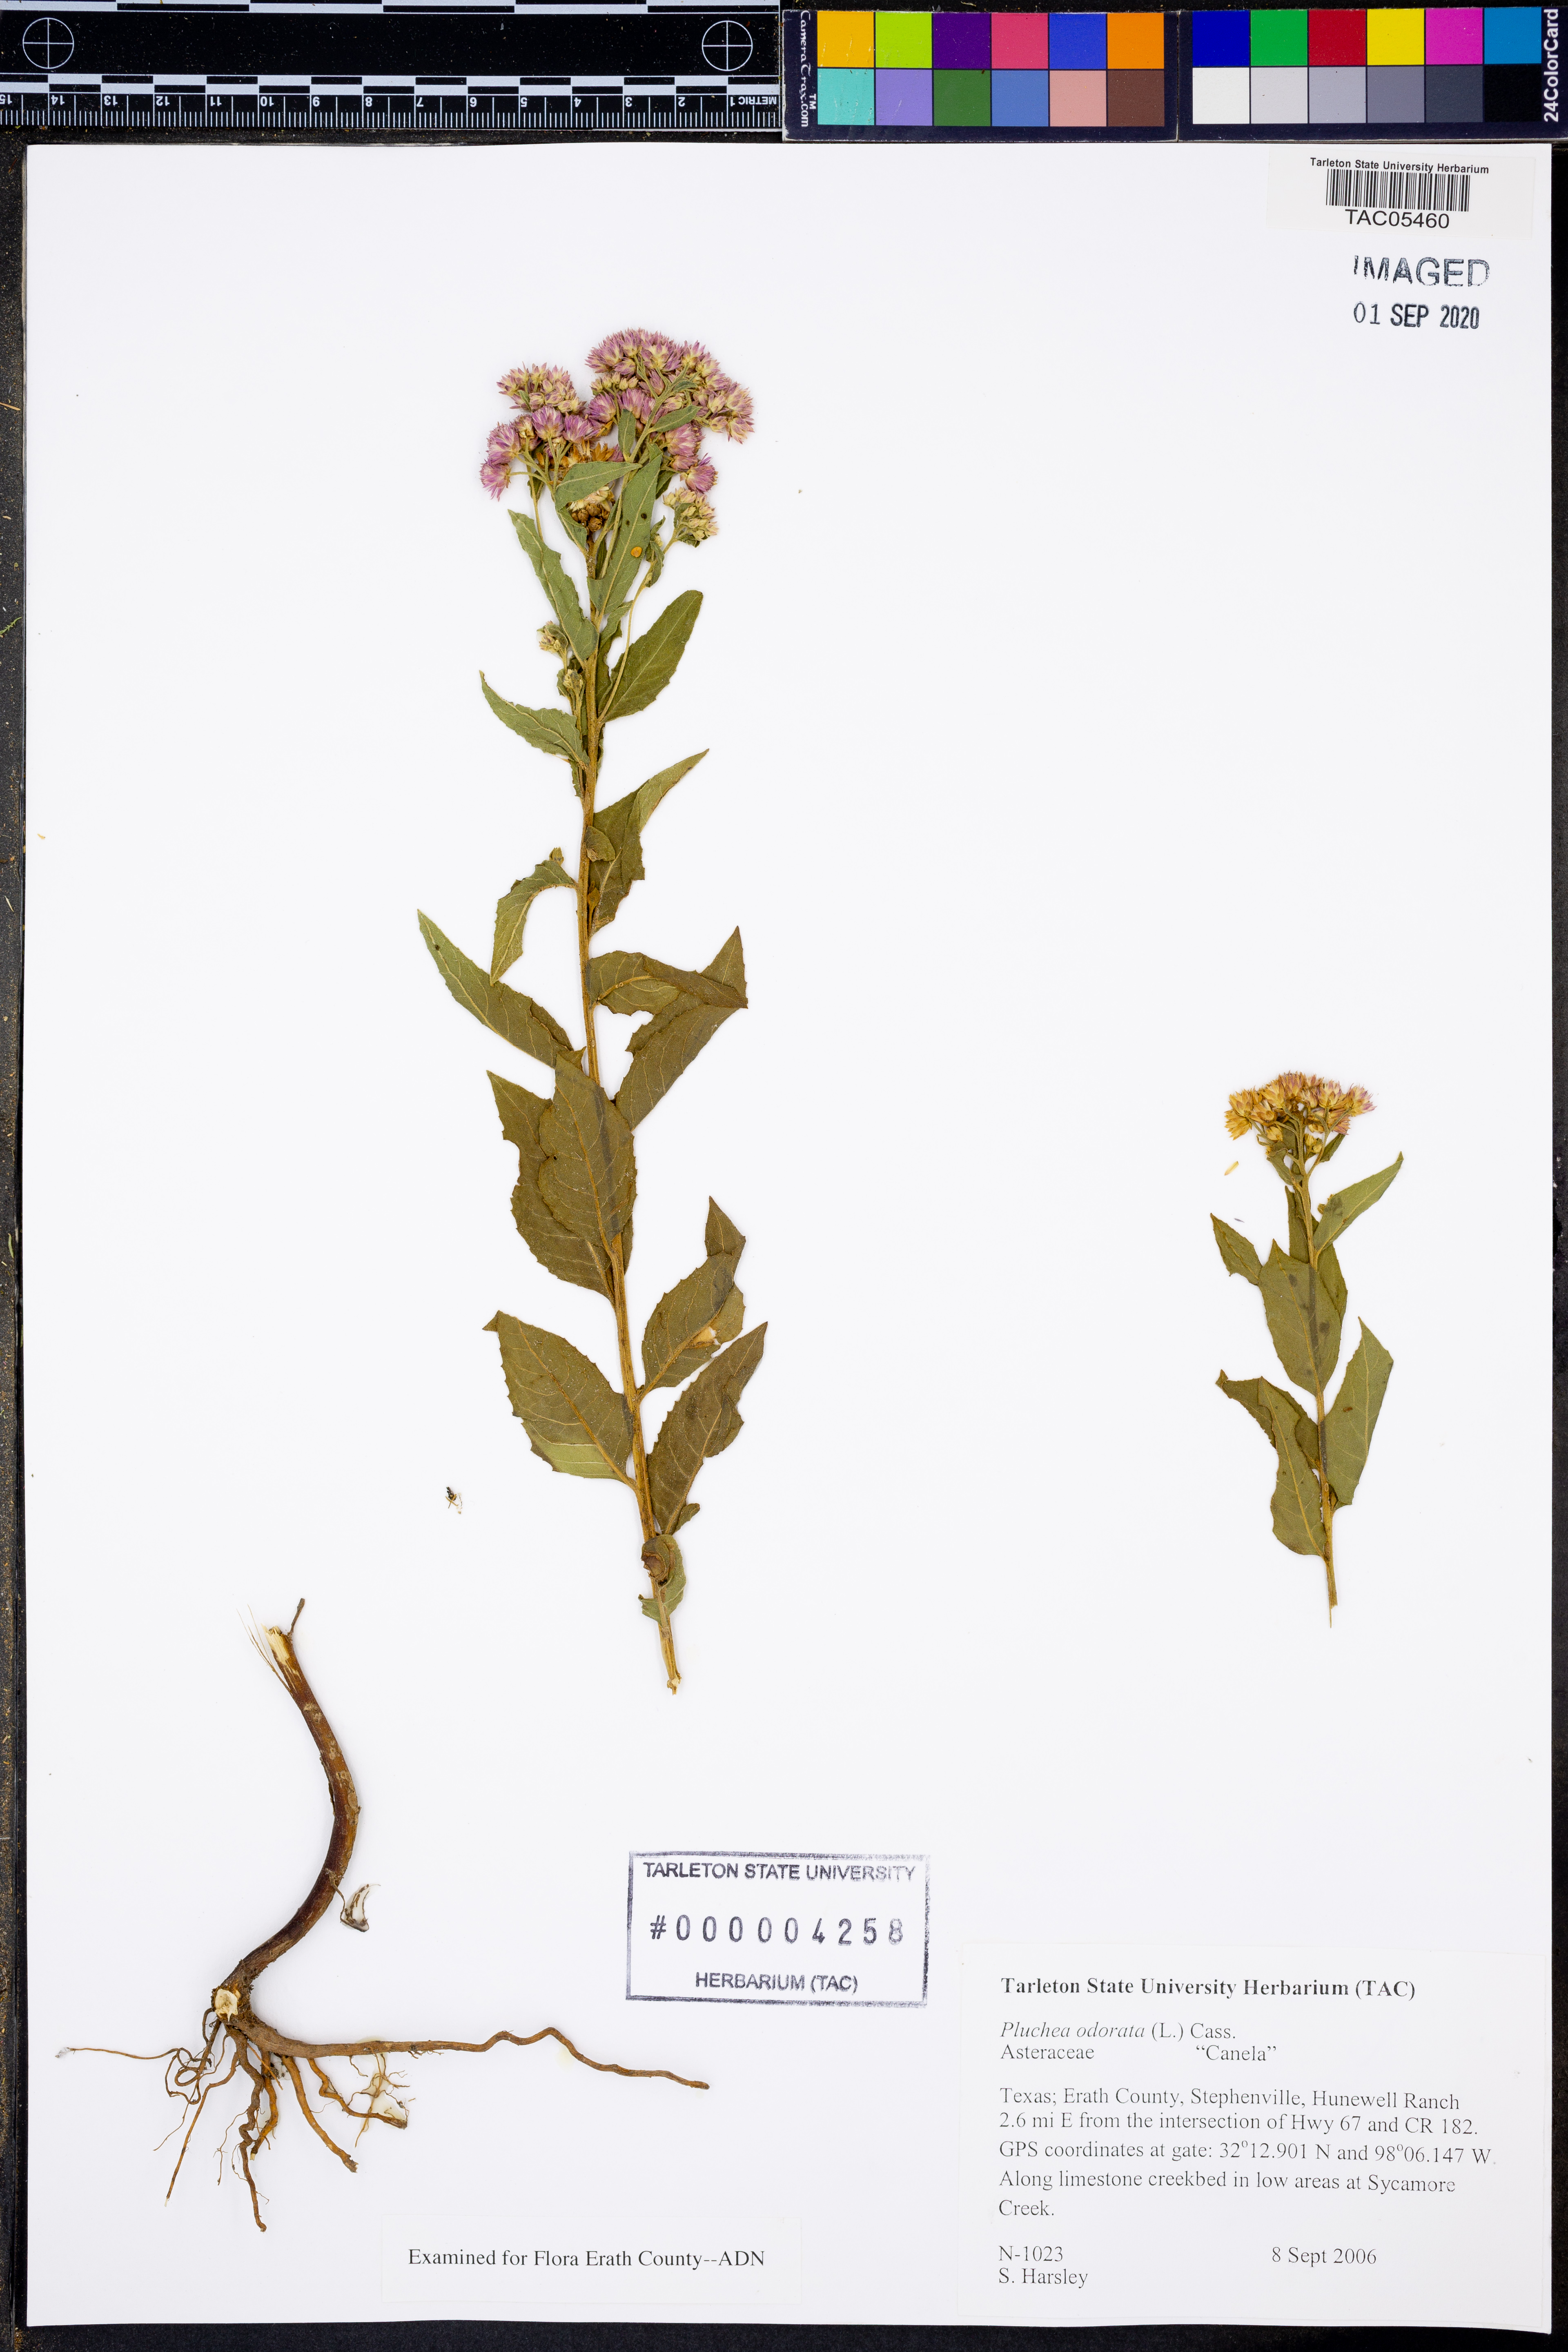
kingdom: Plantae
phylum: Tracheophyta
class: Magnoliopsida
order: Asterales
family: Asteraceae
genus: Pluchea
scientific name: Pluchea odorata
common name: Saltmarsh fleabane
